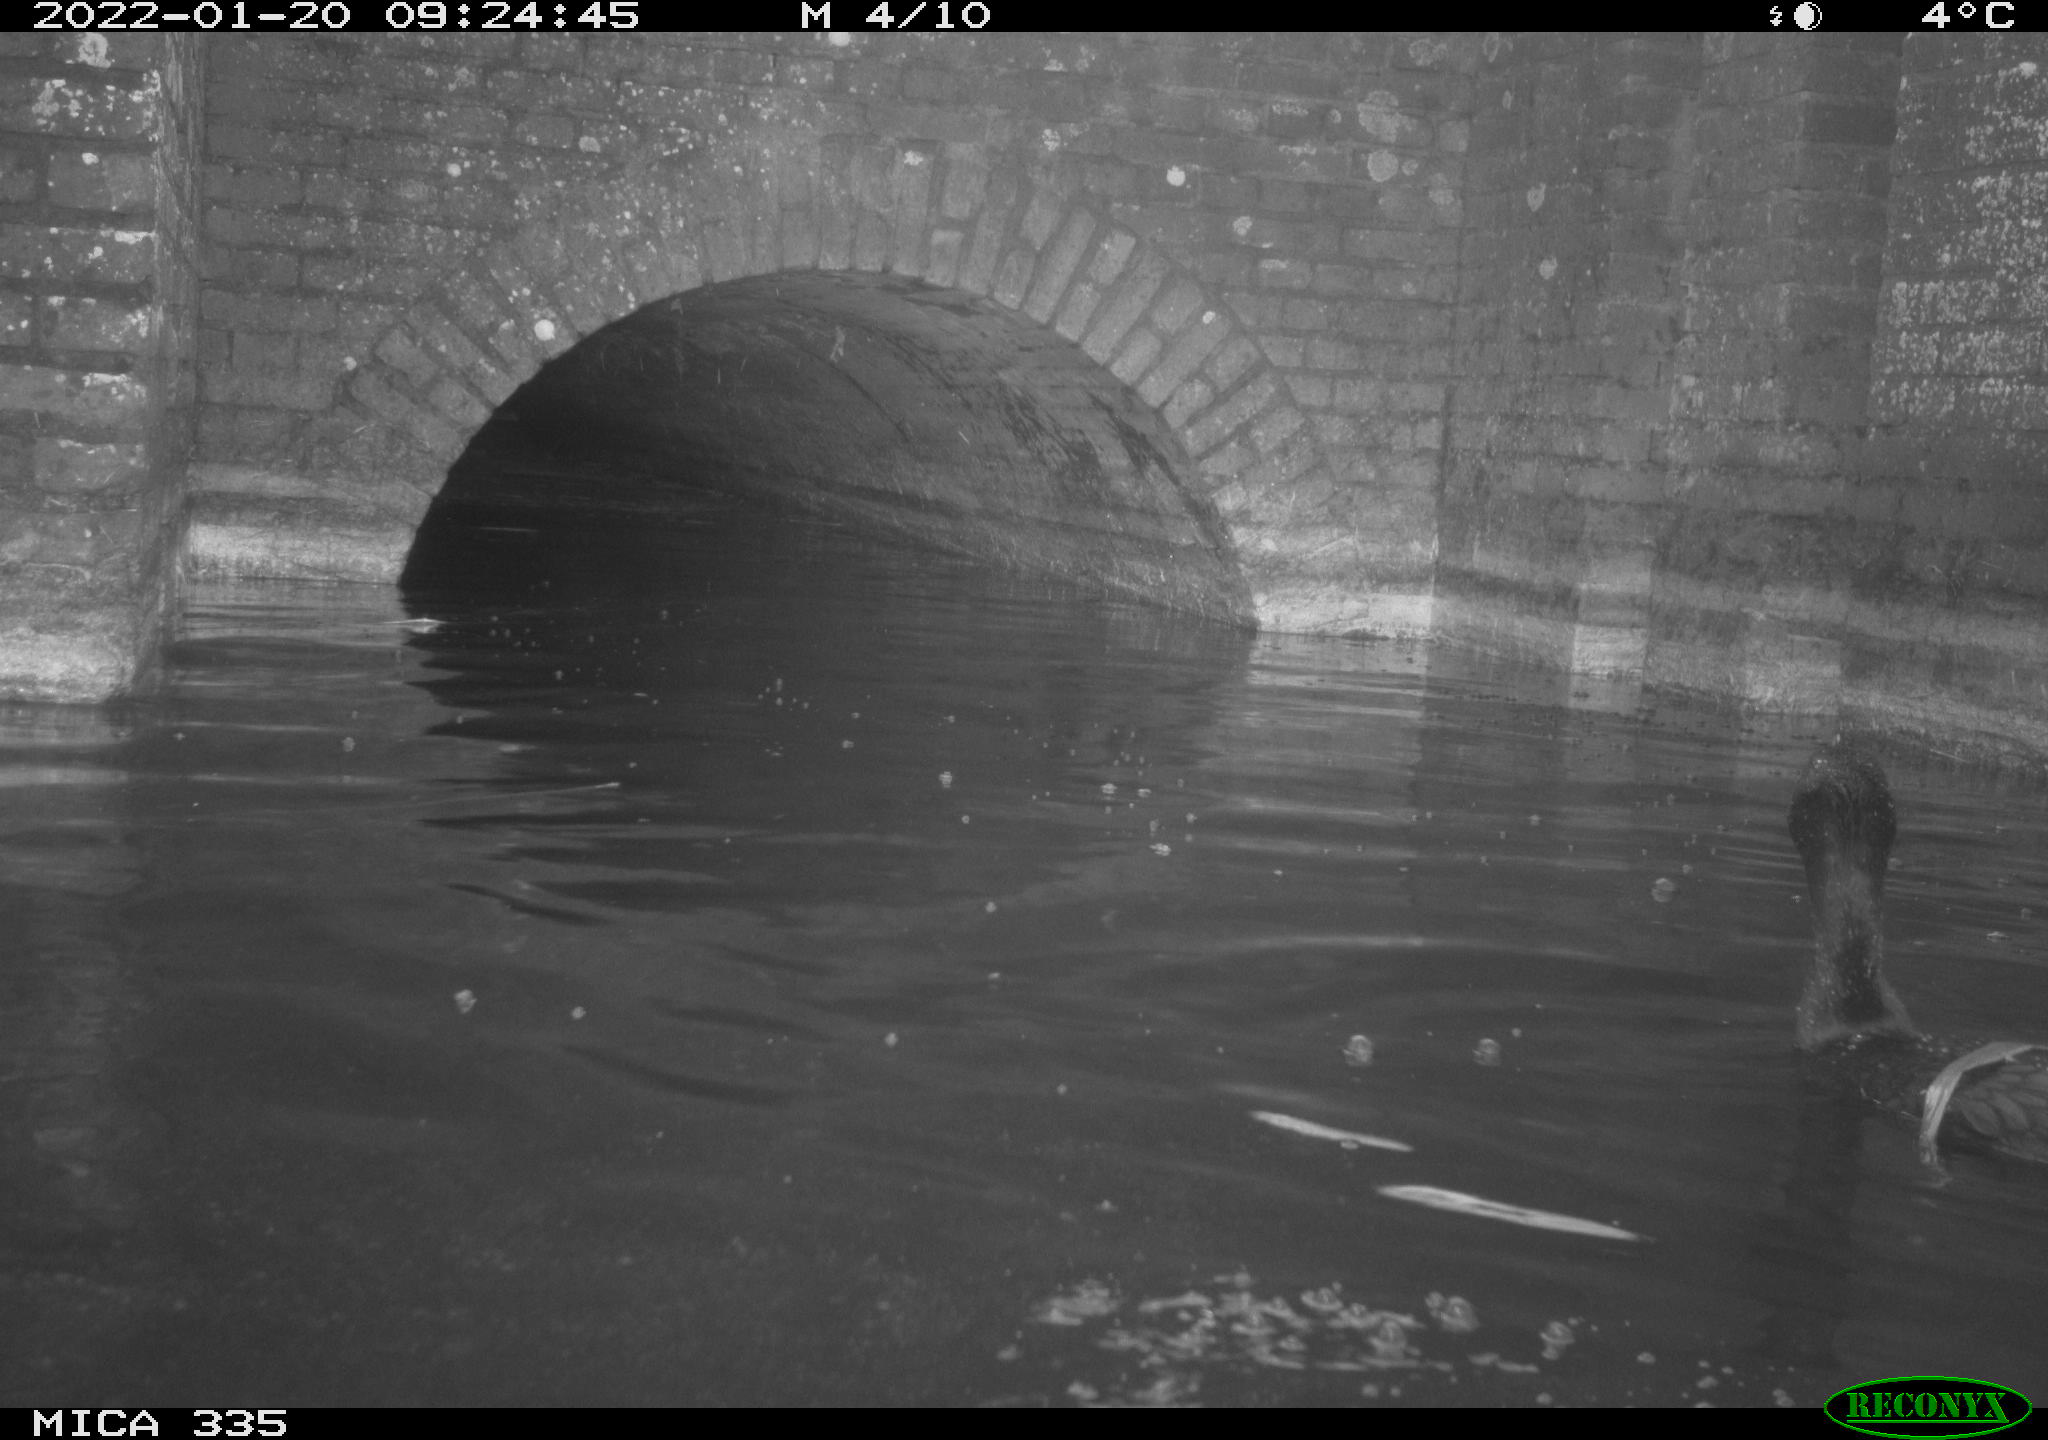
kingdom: Animalia
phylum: Chordata
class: Aves
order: Suliformes
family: Phalacrocoracidae
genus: Phalacrocorax
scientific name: Phalacrocorax carbo
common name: Great cormorant
